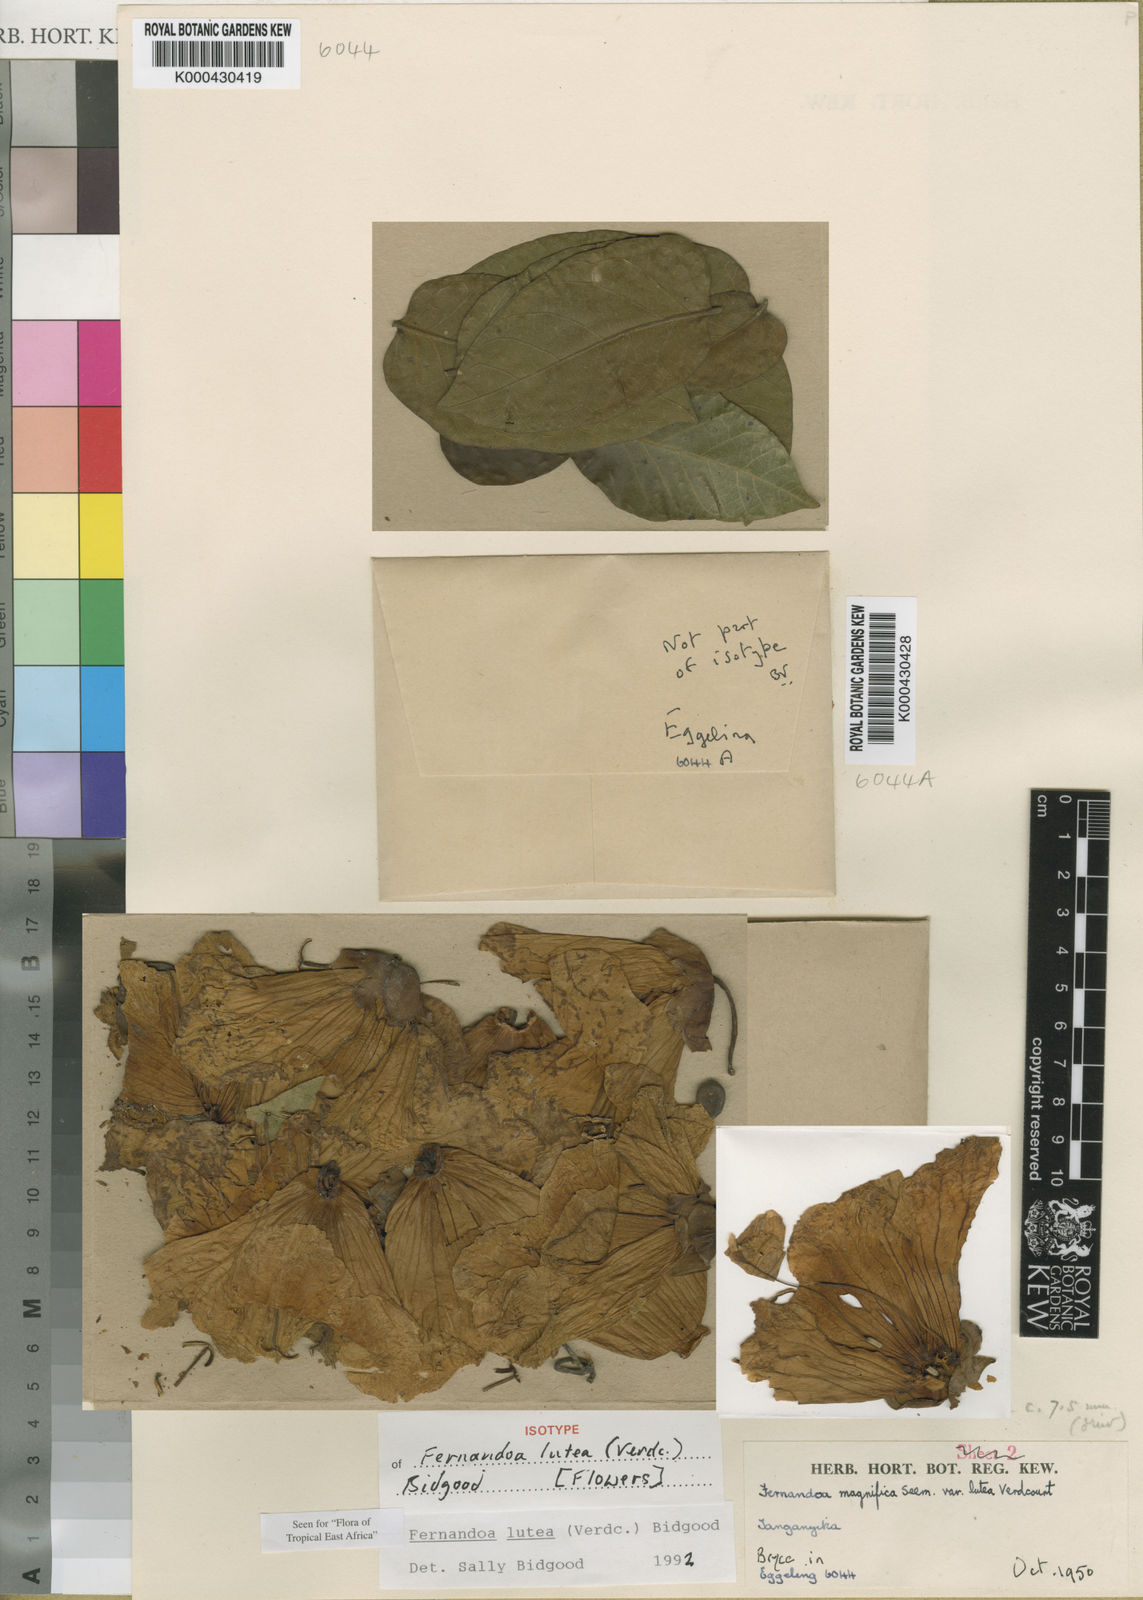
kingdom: Plantae
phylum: Tracheophyta
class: Magnoliopsida
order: Lamiales
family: Bignoniaceae
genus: Fernandoa
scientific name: Fernandoa lutea
